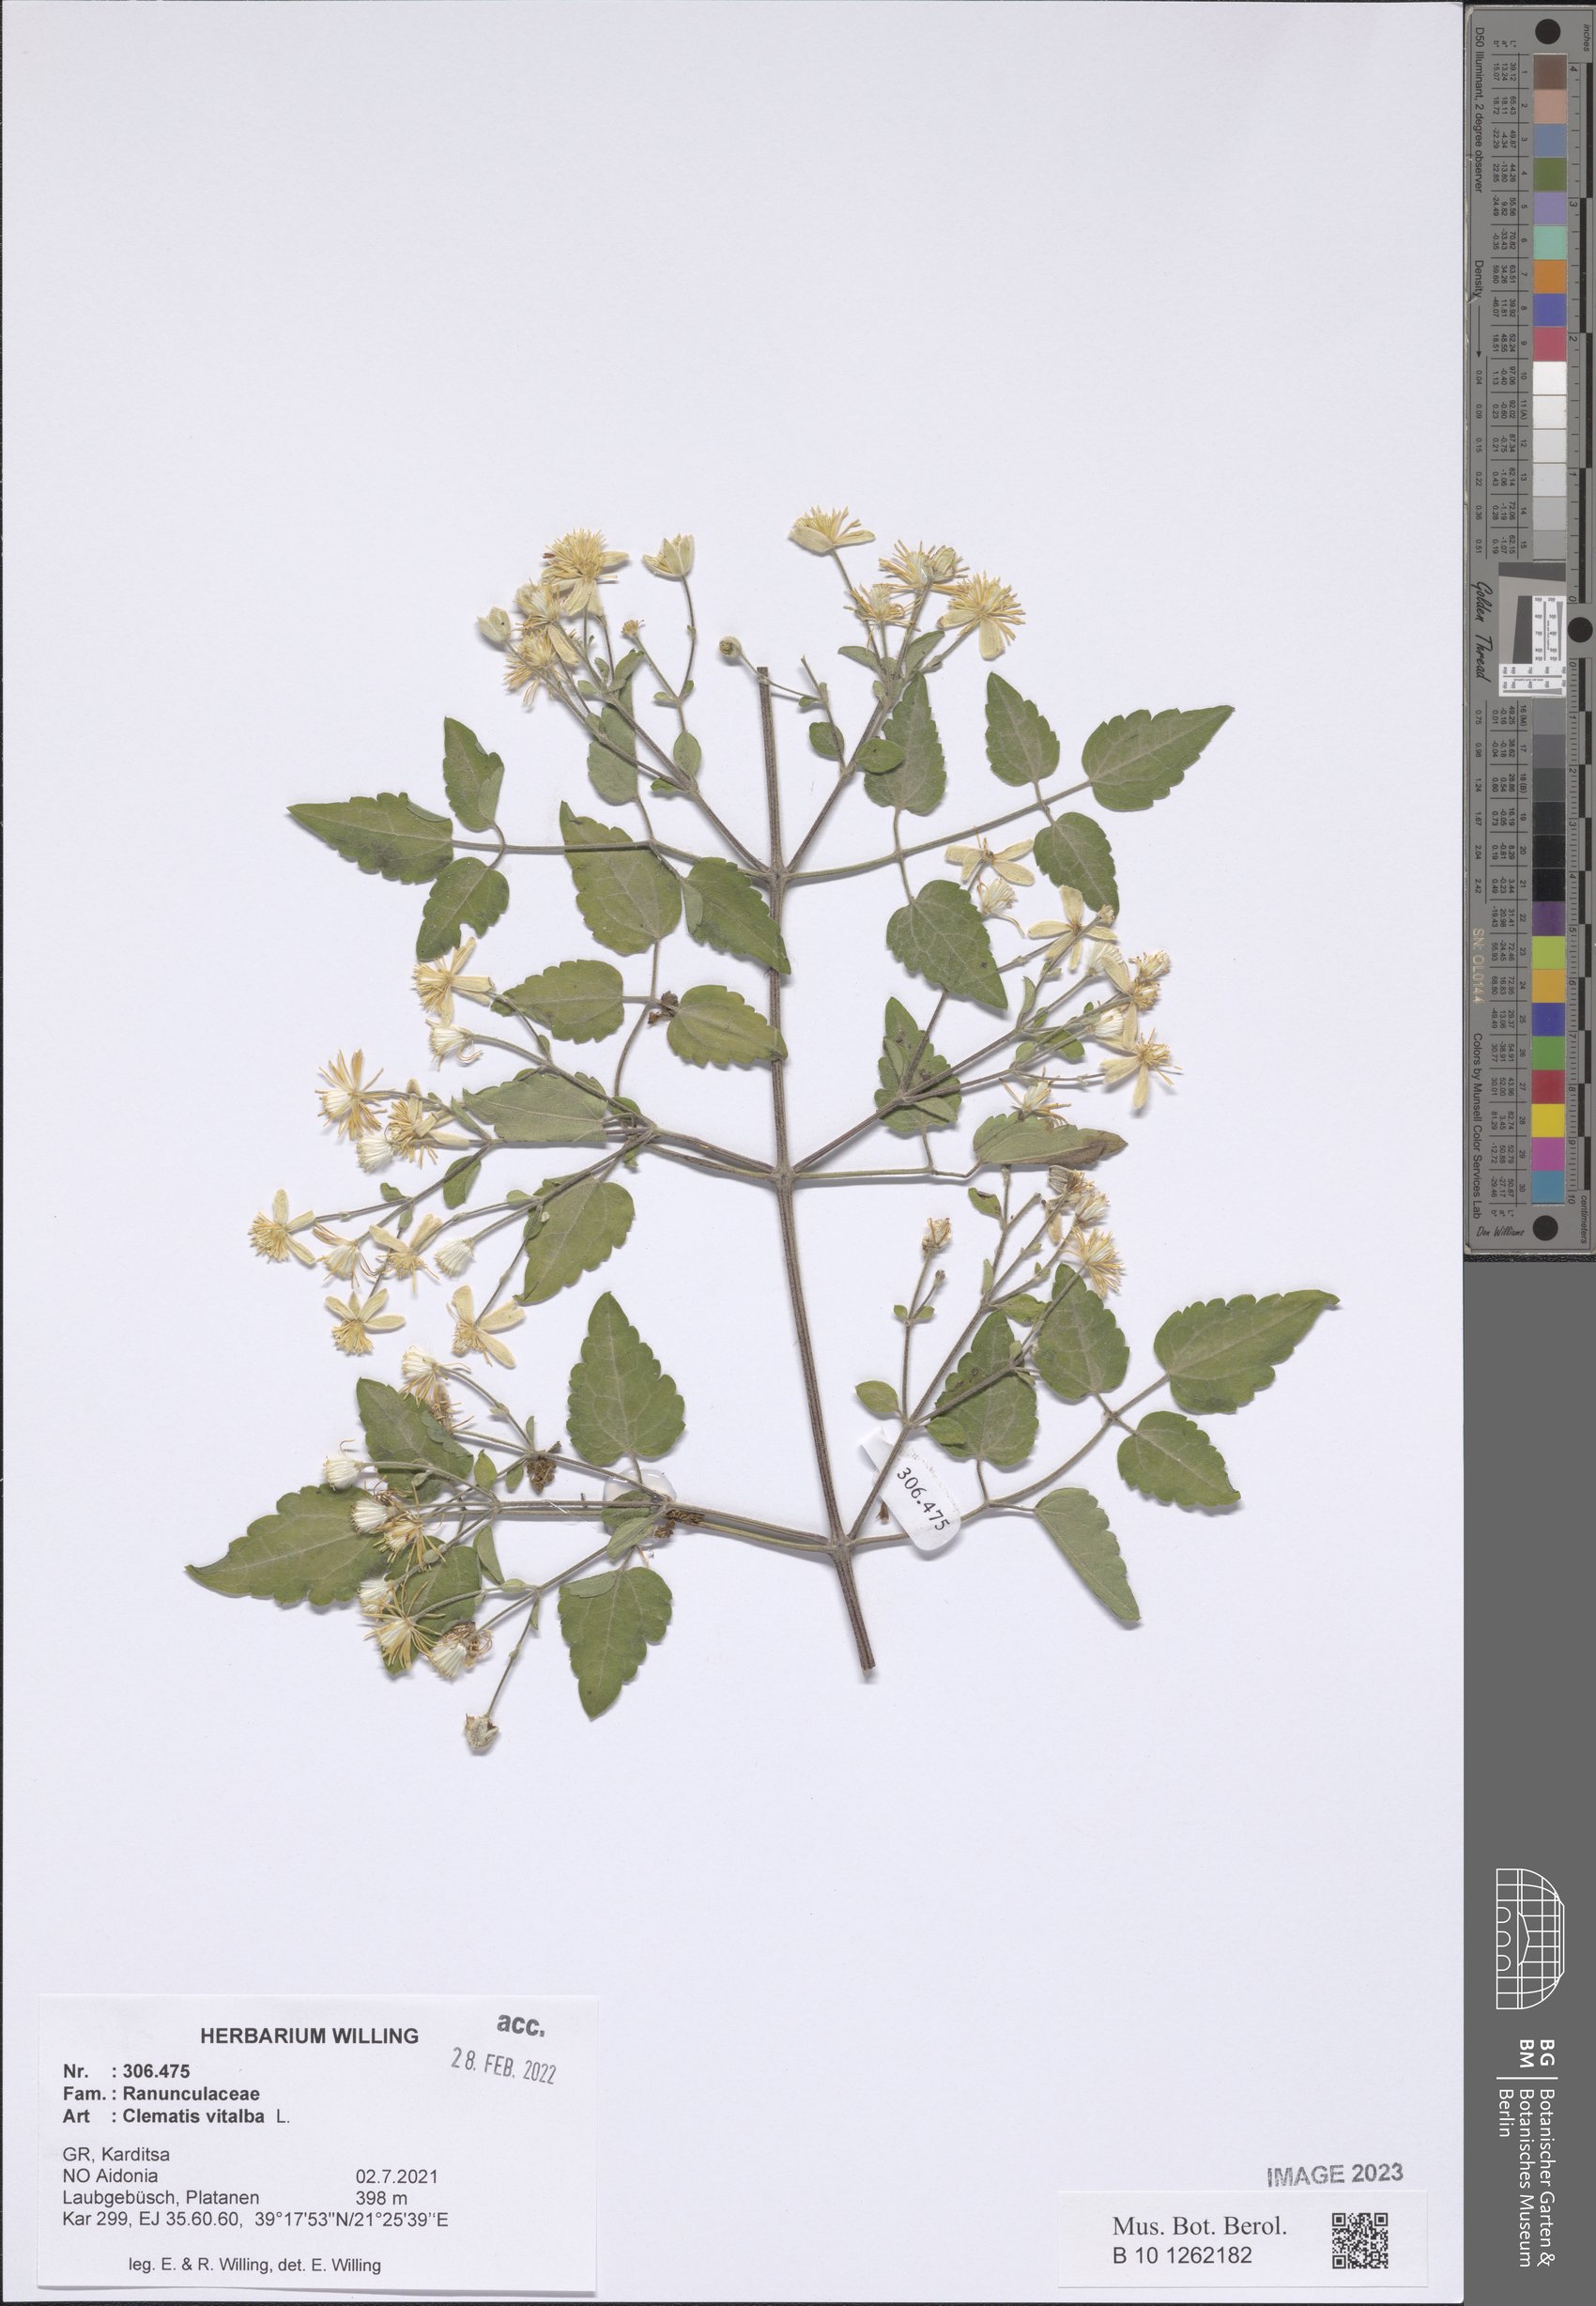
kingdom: Plantae
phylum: Tracheophyta
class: Magnoliopsida
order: Ranunculales
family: Ranunculaceae
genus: Clematis
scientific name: Clematis vitalba
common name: Evergreen clematis
